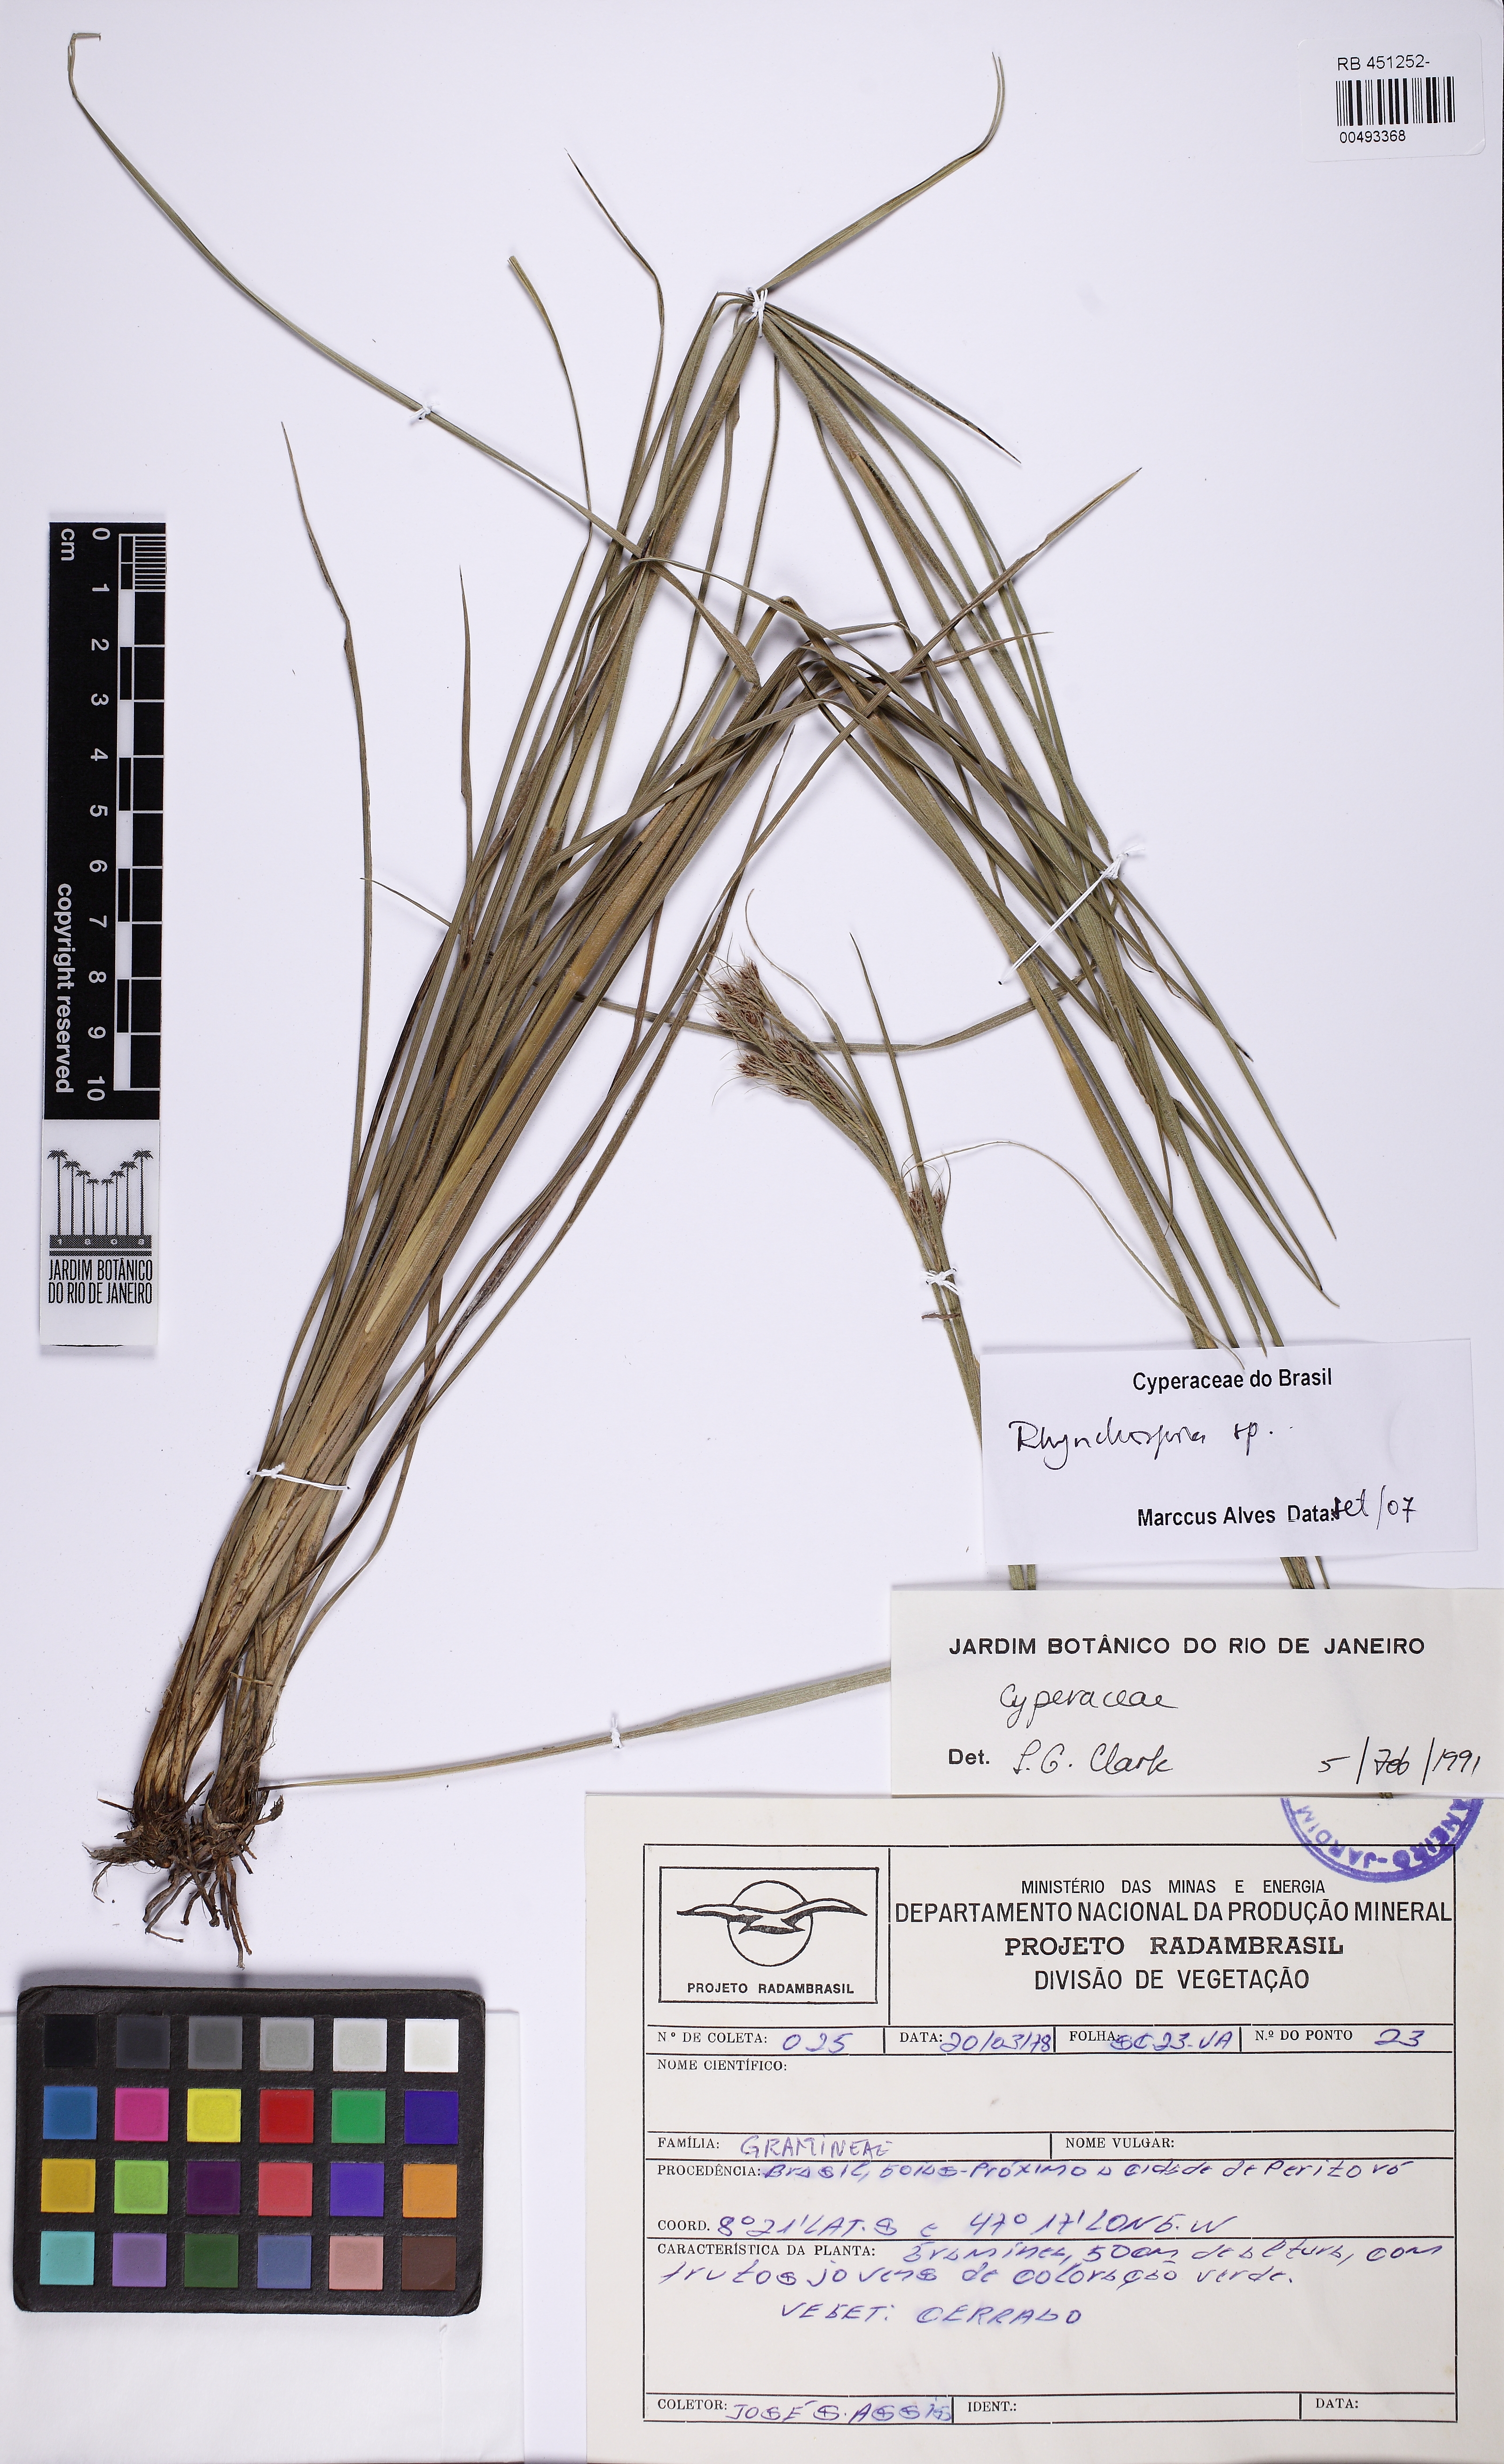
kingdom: Plantae
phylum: Tracheophyta
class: Liliopsida
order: Poales
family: Cyperaceae
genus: Rhynchospora
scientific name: Rhynchospora
